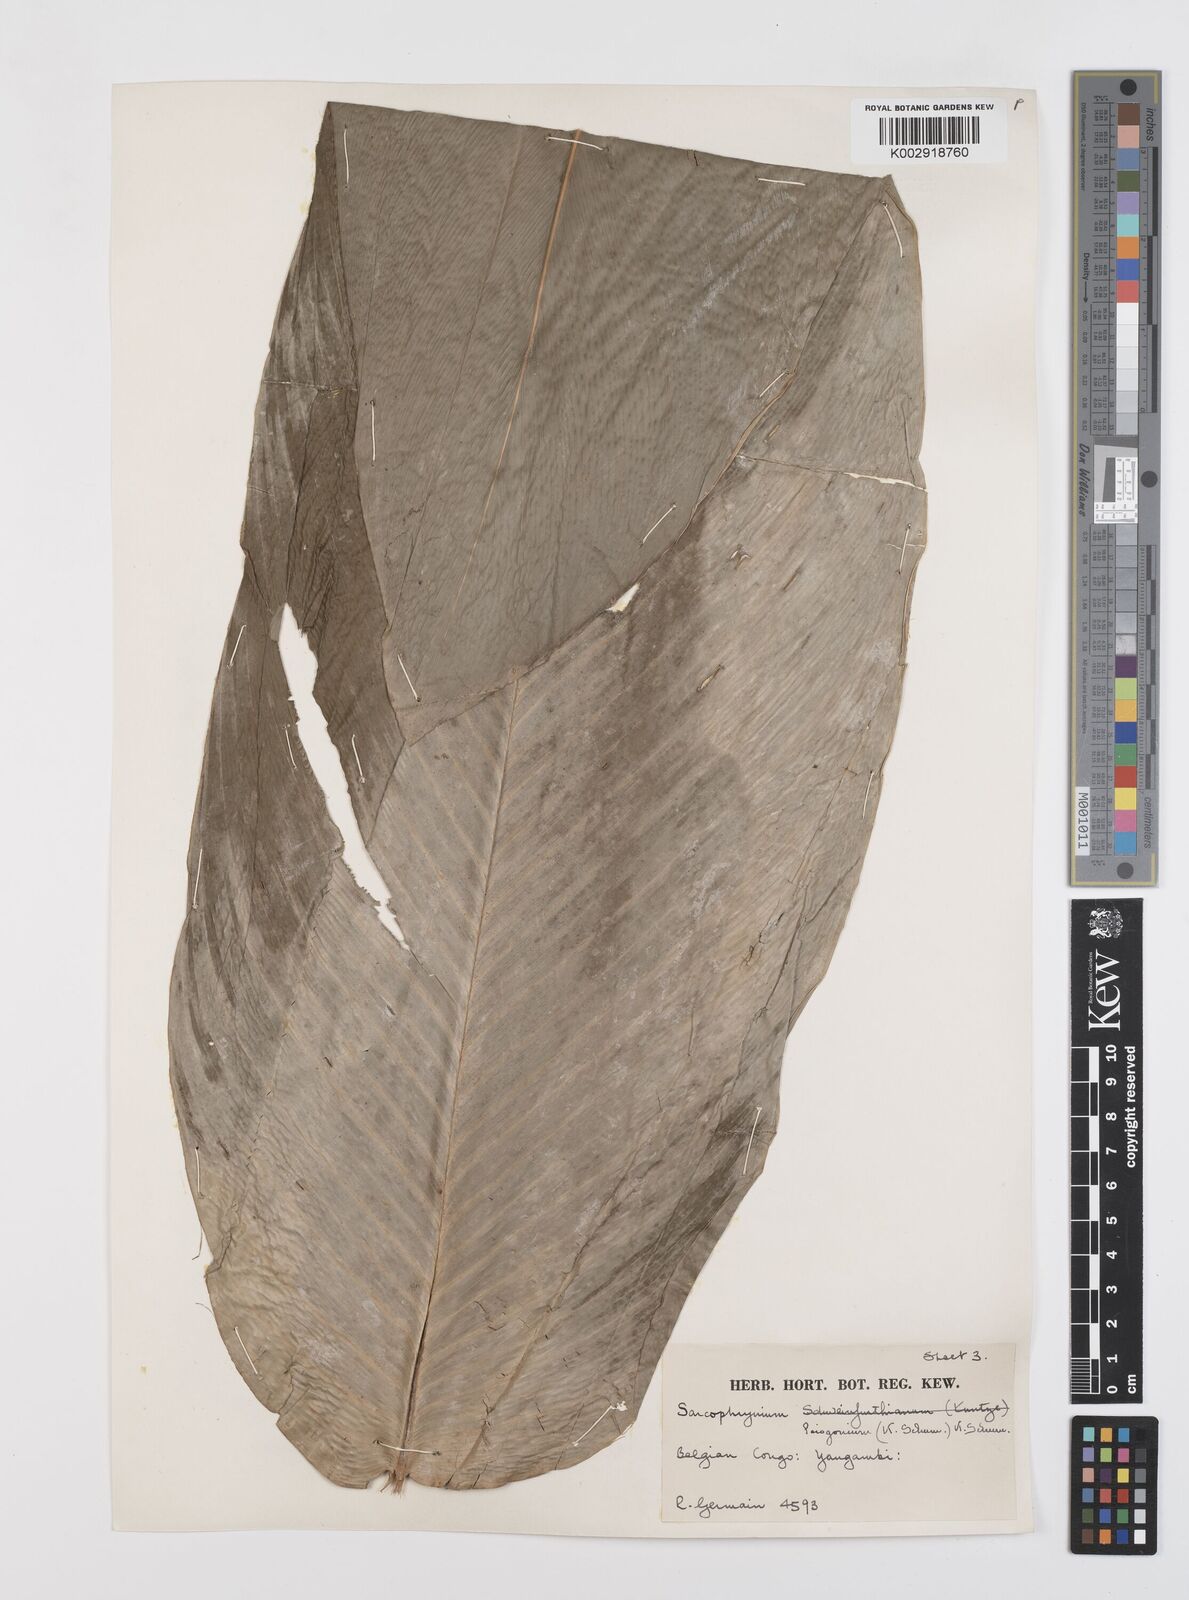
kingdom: Plantae
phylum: Tracheophyta
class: Liliopsida
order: Zingiberales
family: Marantaceae
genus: Sarcophrynium
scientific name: Sarcophrynium prionogonium
